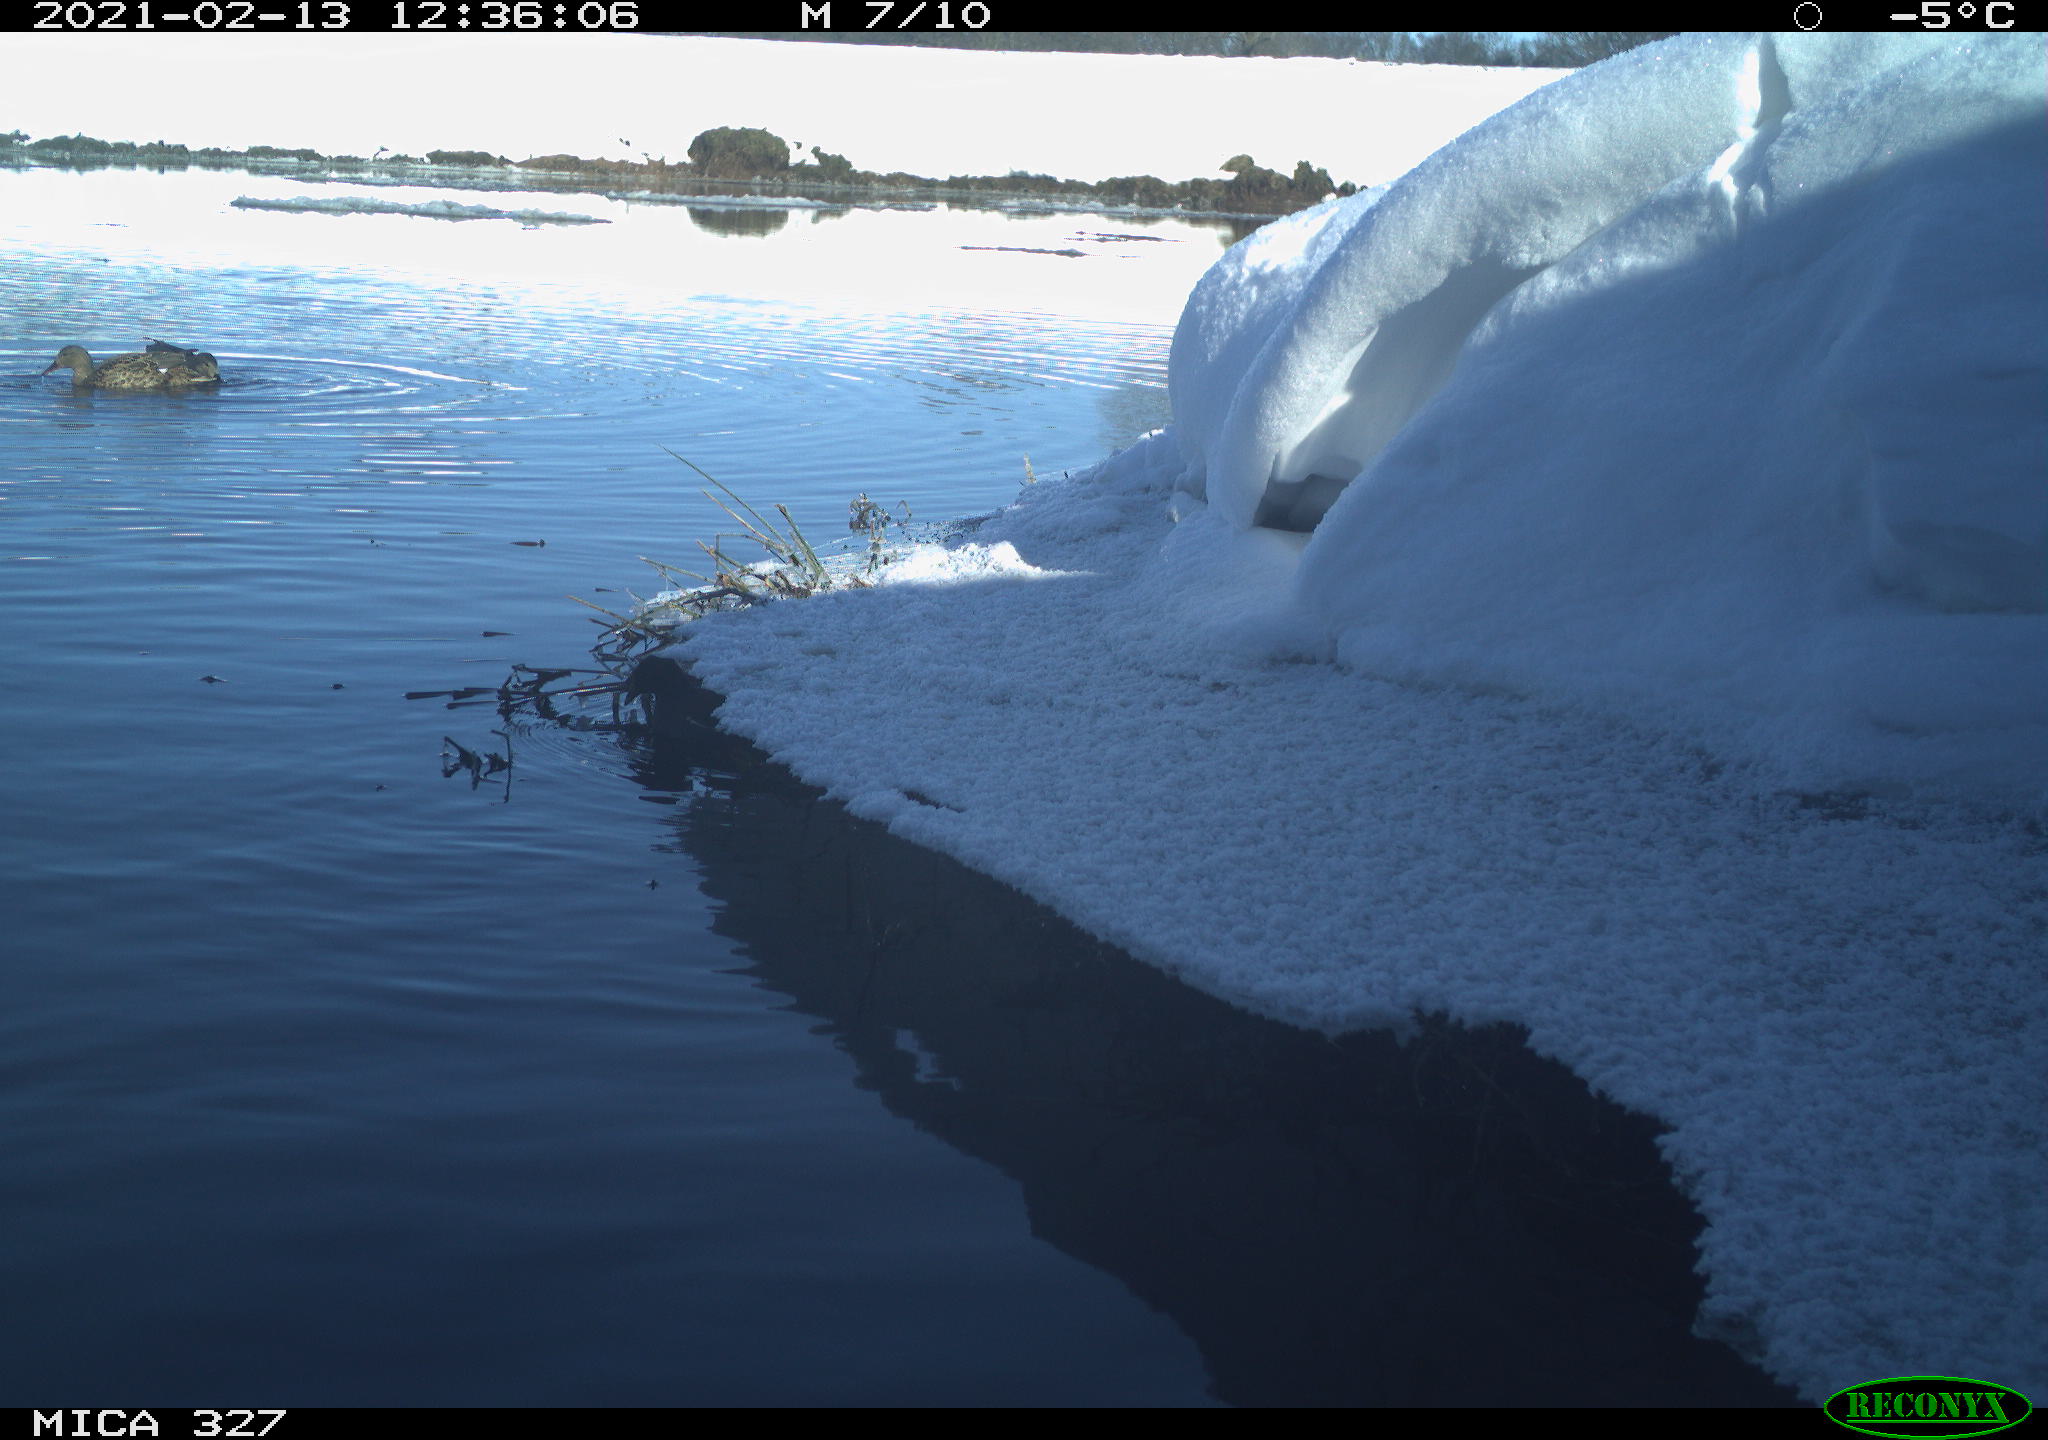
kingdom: Animalia
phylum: Chordata
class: Aves
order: Gruiformes
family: Rallidae
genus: Gallinula
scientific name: Gallinula chloropus
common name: Common moorhen
